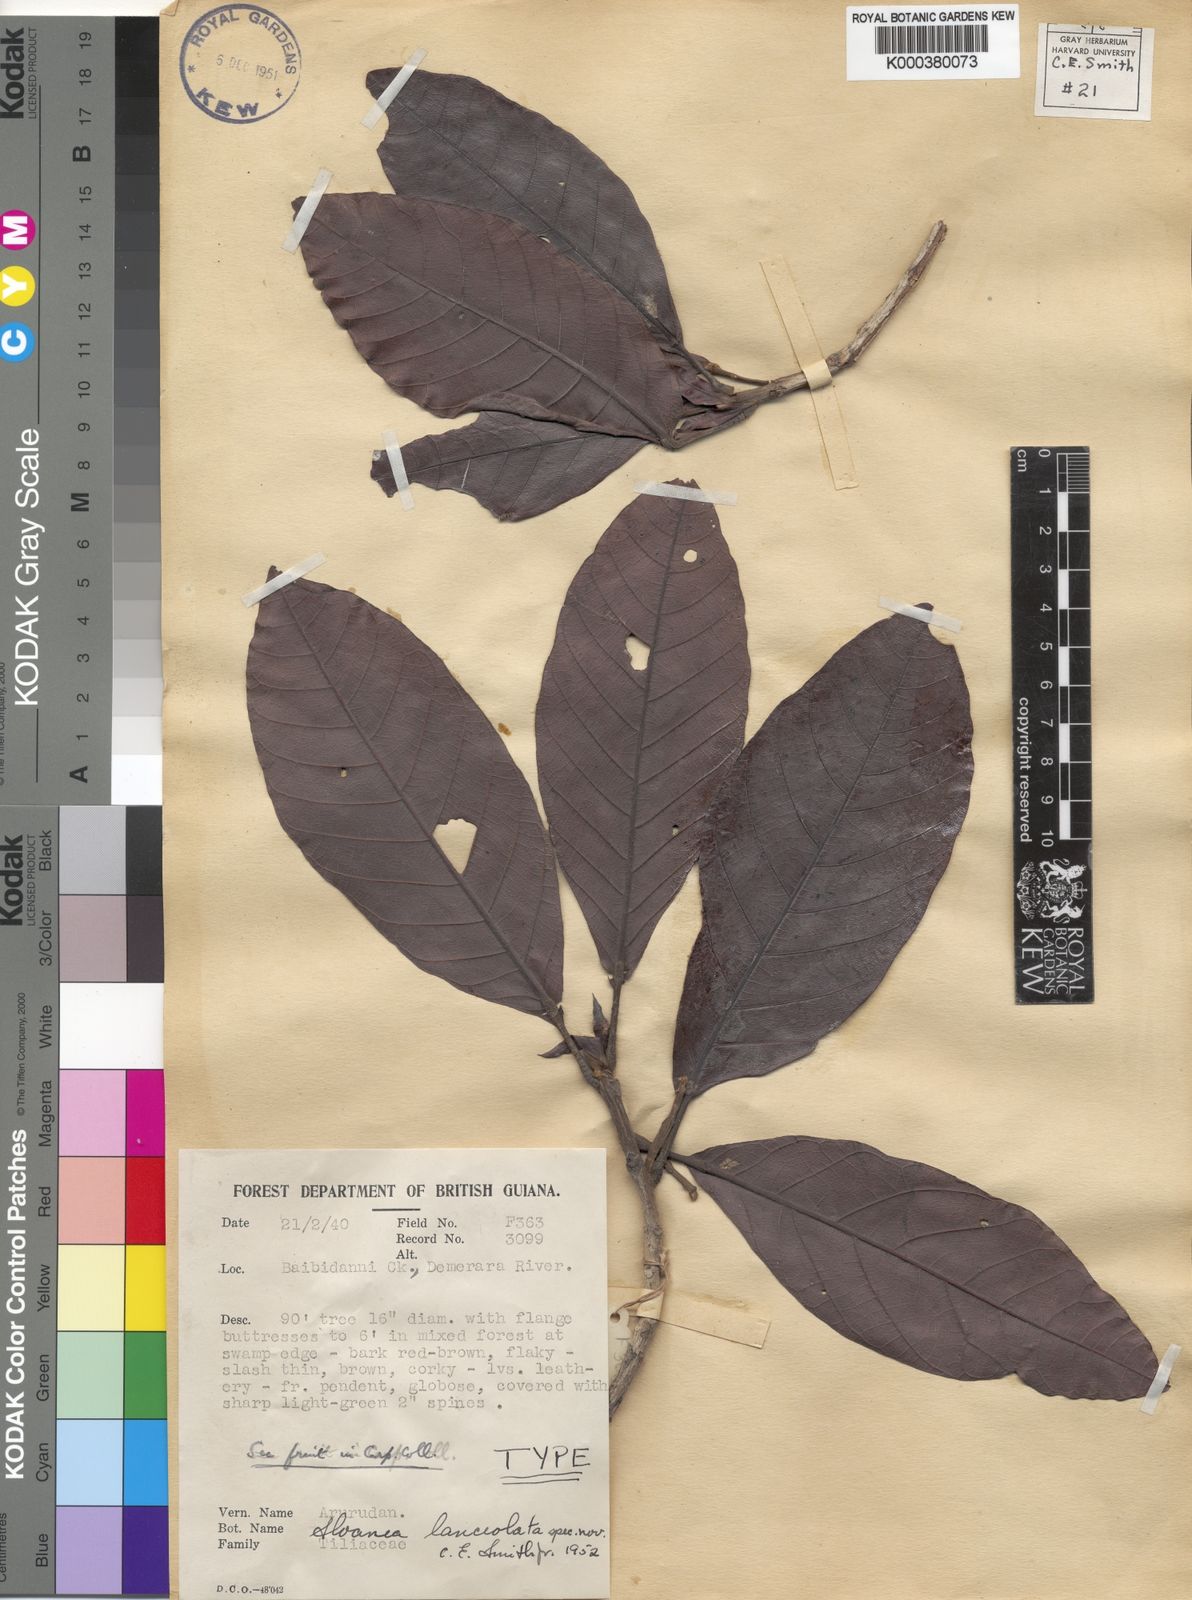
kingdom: Plantae
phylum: Tracheophyta
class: Magnoliopsida
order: Oxalidales
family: Elaeocarpaceae
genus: Sloanea
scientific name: Sloanea lanceolata
